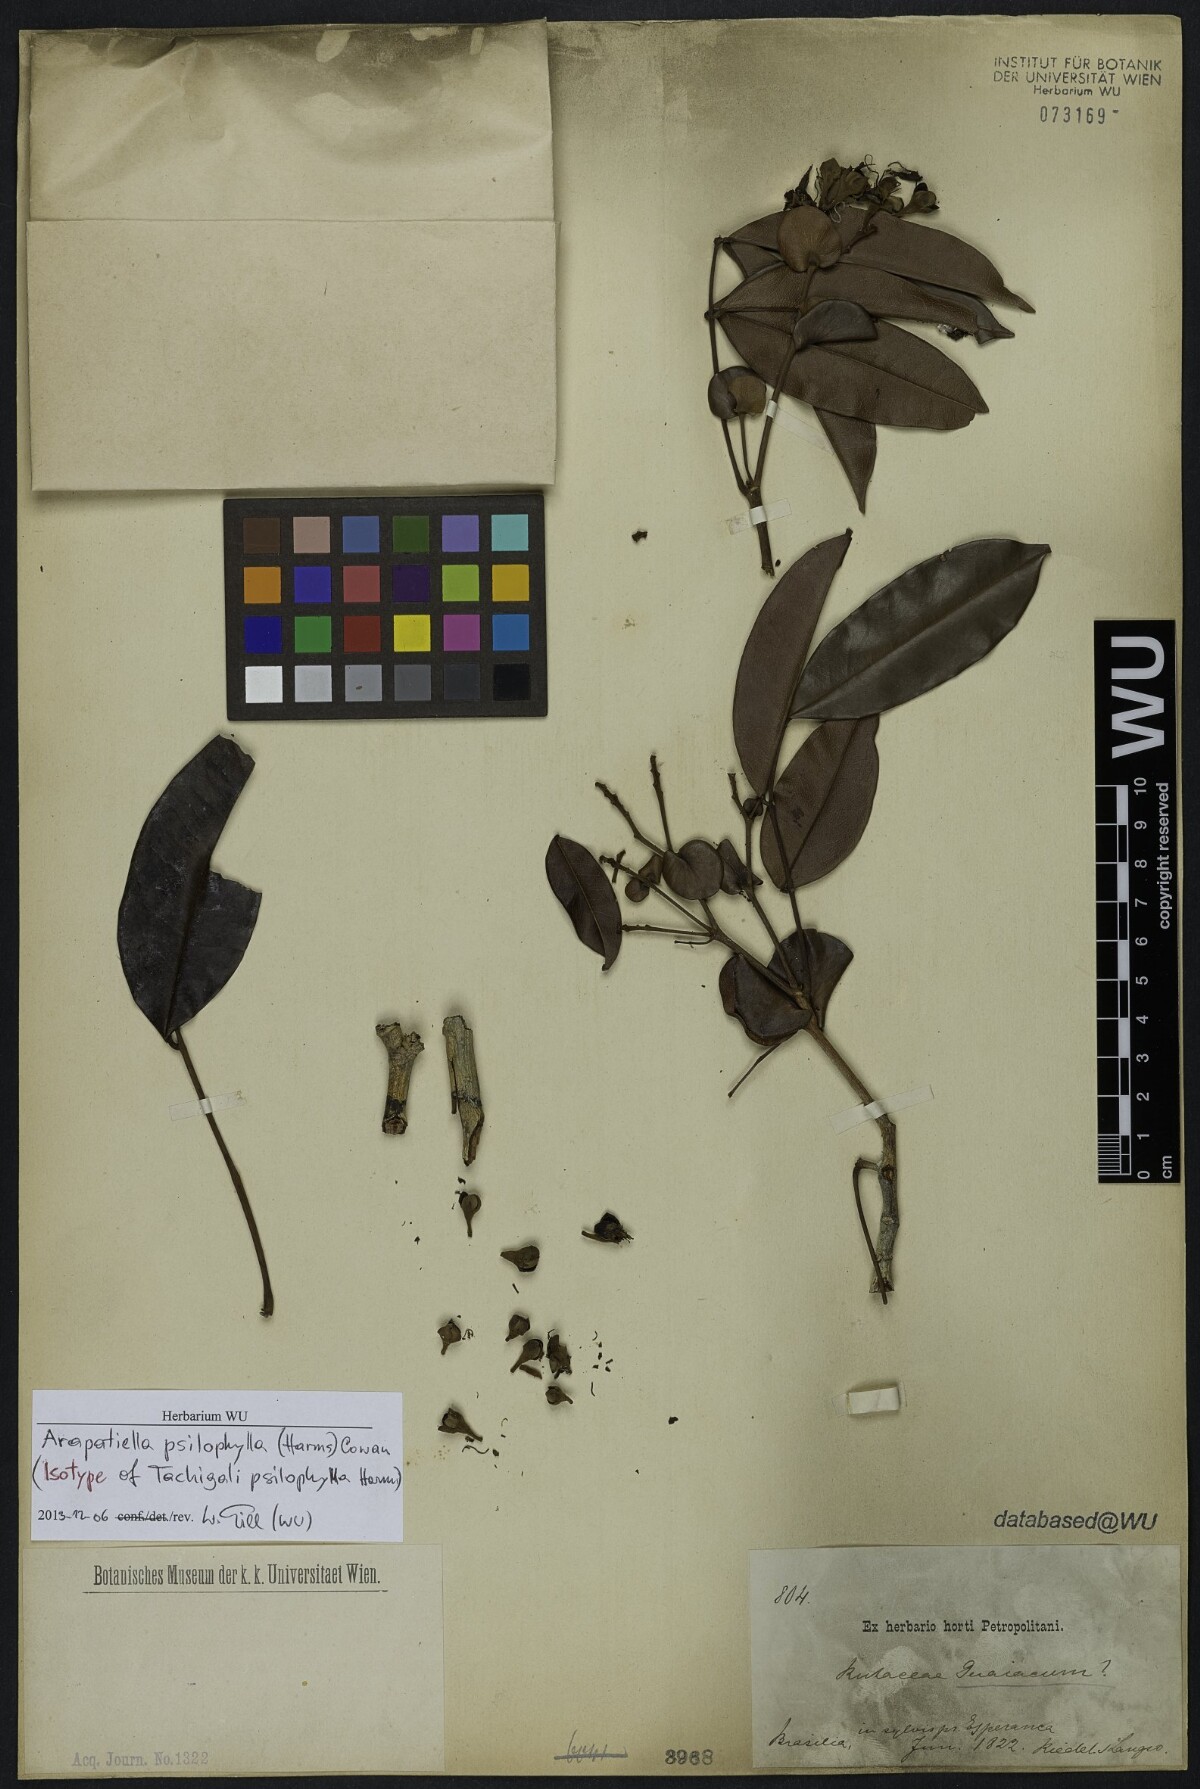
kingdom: Plantae
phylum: Tracheophyta
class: Magnoliopsida
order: Fabales
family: Fabaceae
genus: Arapatiella
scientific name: Arapatiella psilophylla
